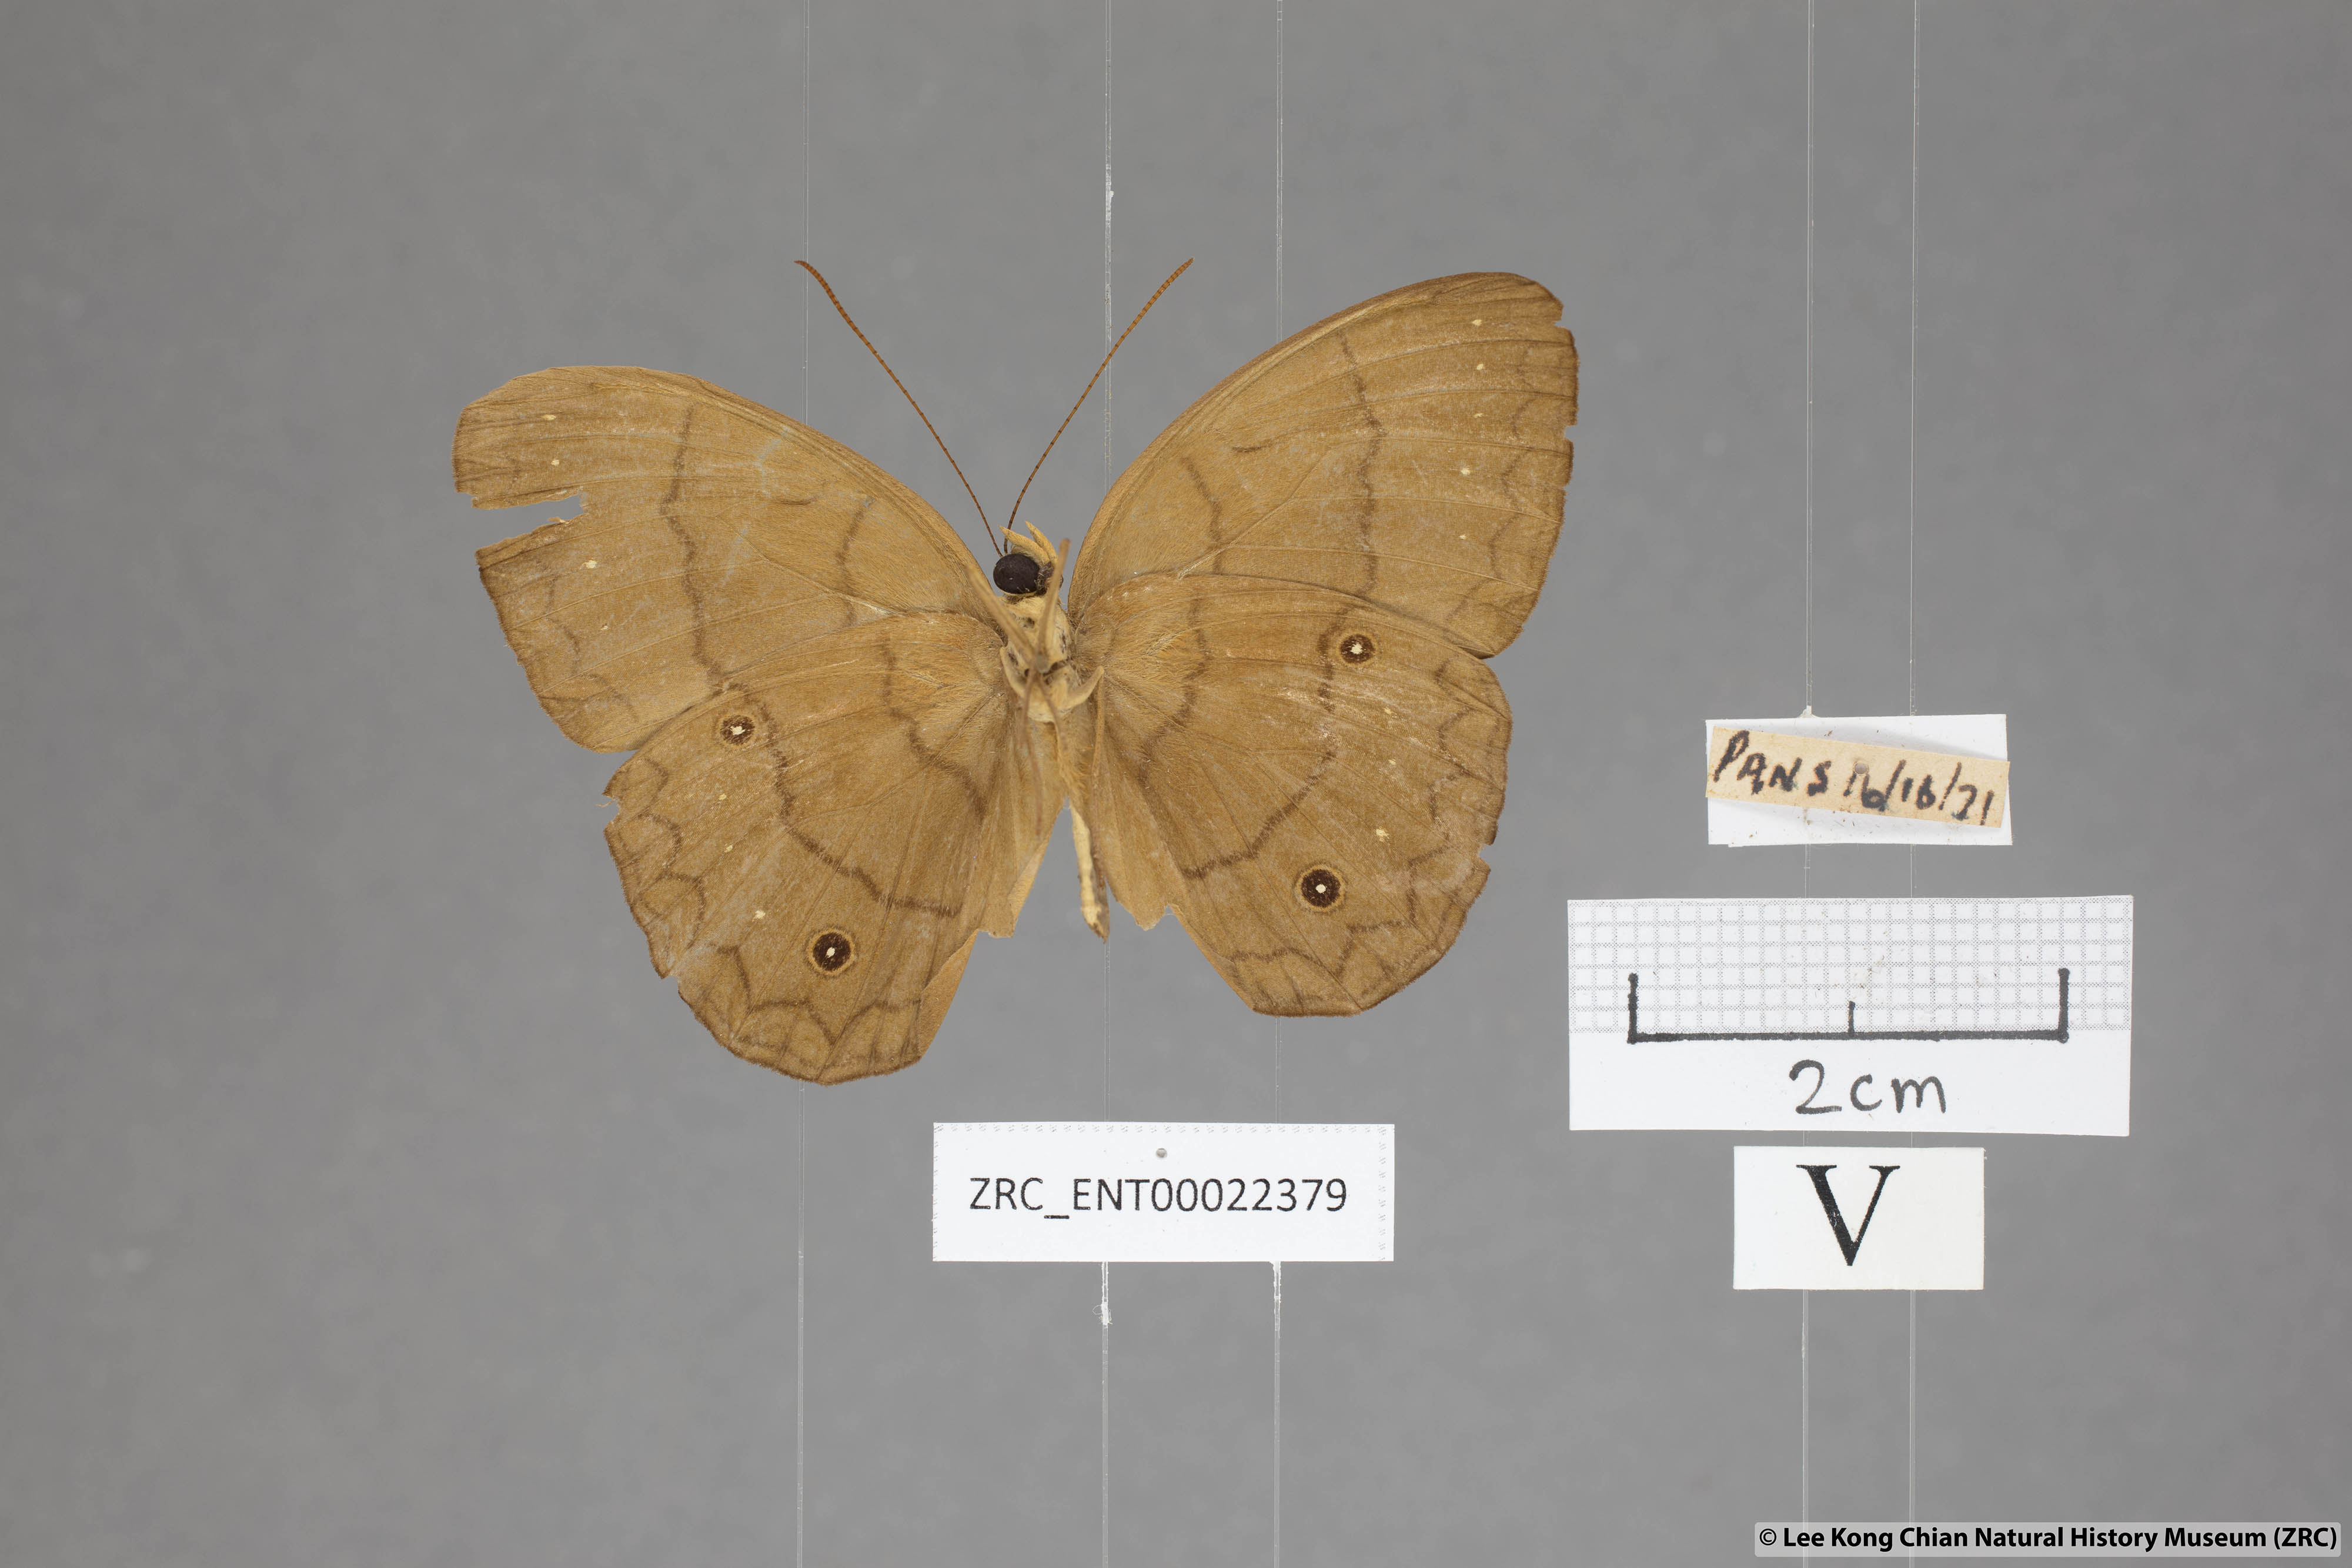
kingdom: Animalia
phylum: Arthropoda
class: Insecta
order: Lepidoptera
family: Nymphalidae
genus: Faunis
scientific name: Faunis gracilis
